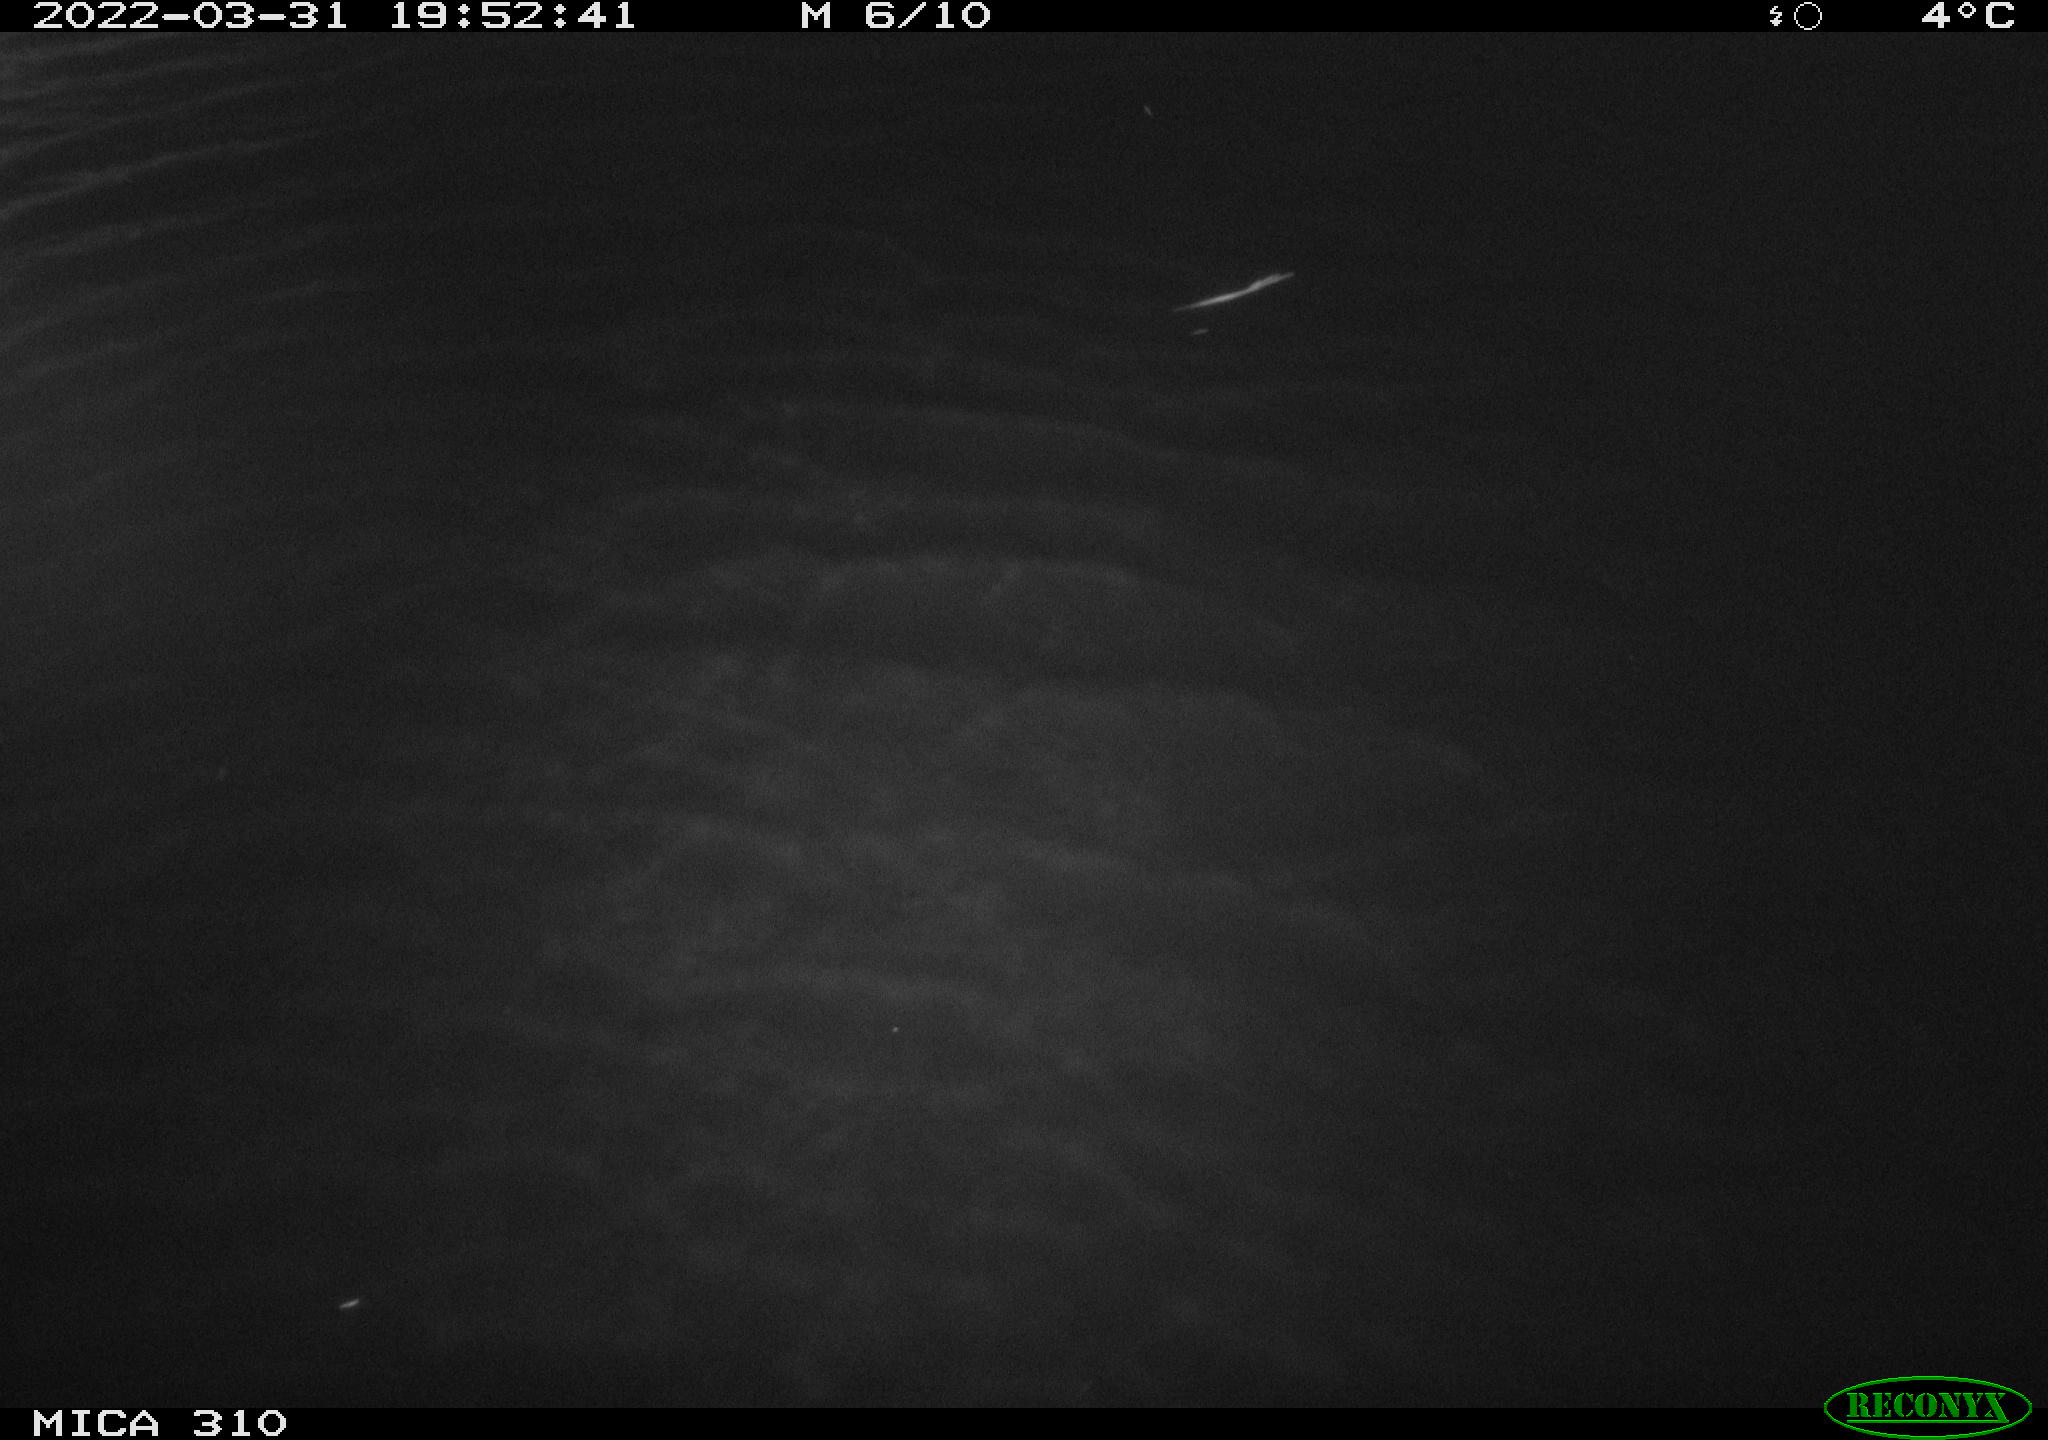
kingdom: Animalia
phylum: Chordata
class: Aves
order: Anseriformes
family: Anatidae
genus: Anas
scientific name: Anas platyrhynchos
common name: Mallard
